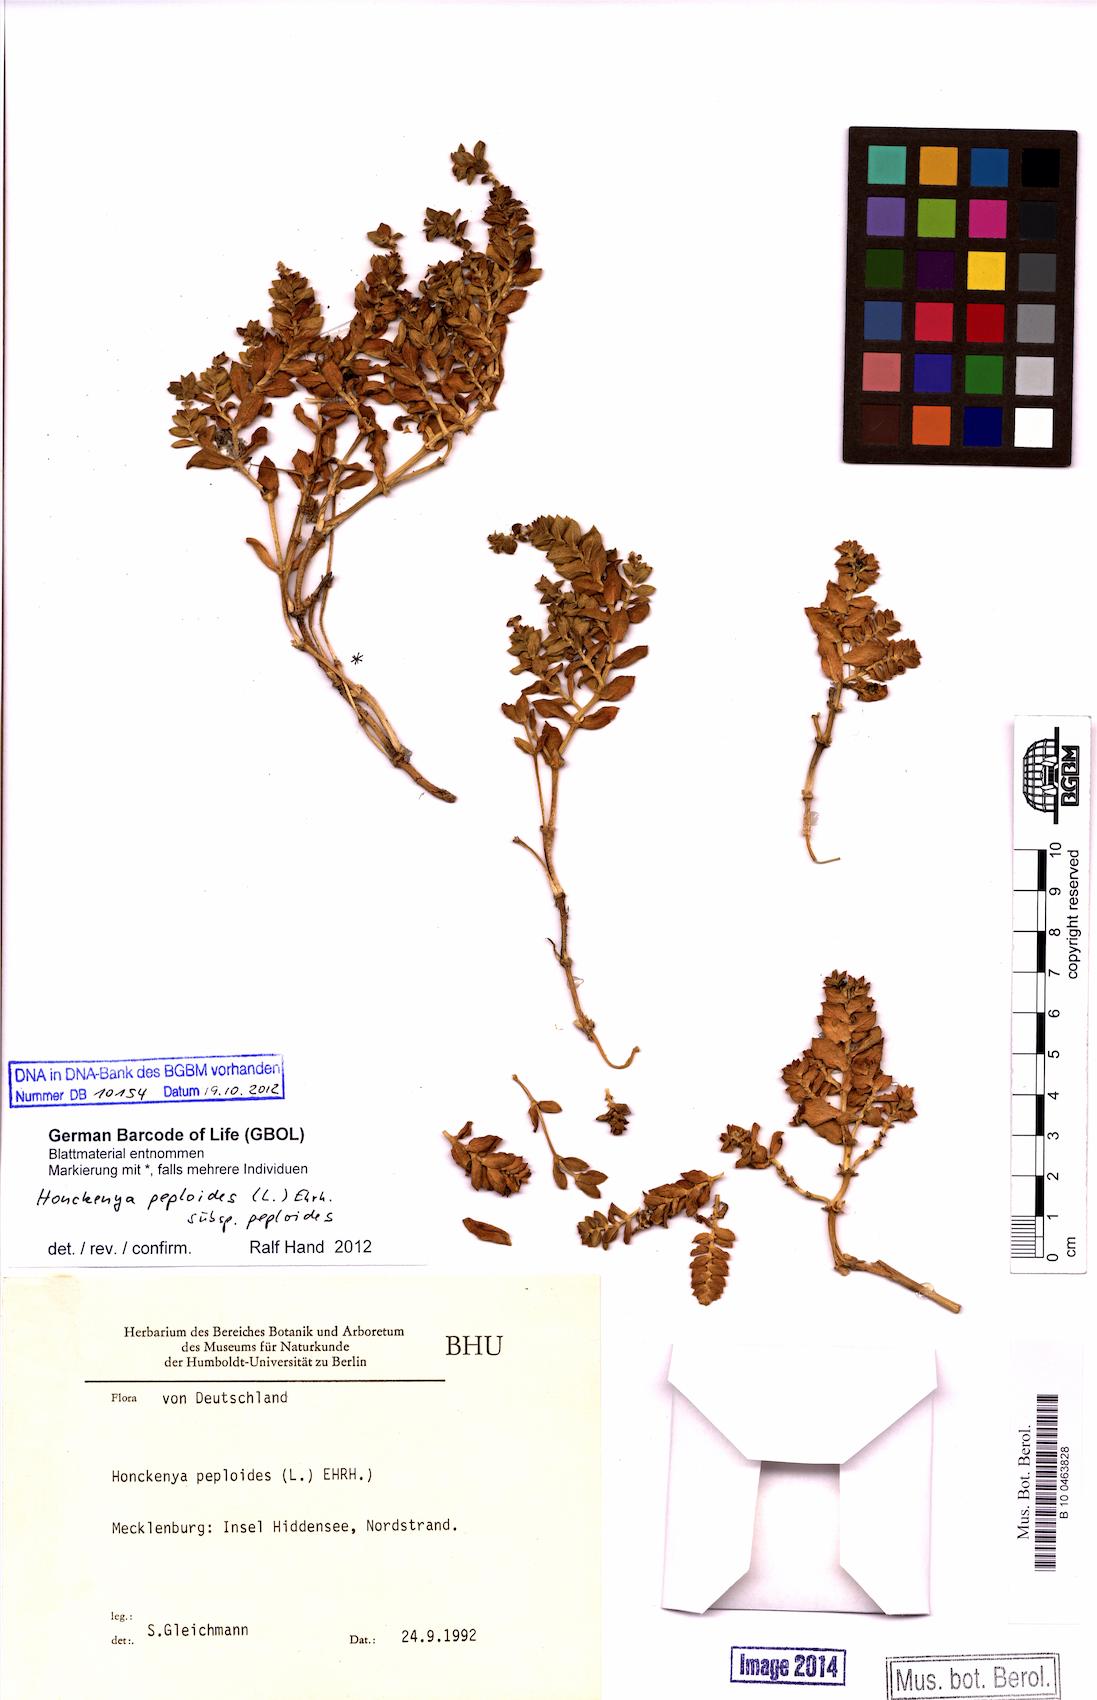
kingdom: Plantae
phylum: Tracheophyta
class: Magnoliopsida
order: Caryophyllales
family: Caryophyllaceae
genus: Honckenya
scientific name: Honckenya peploides
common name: Sea sandwort
